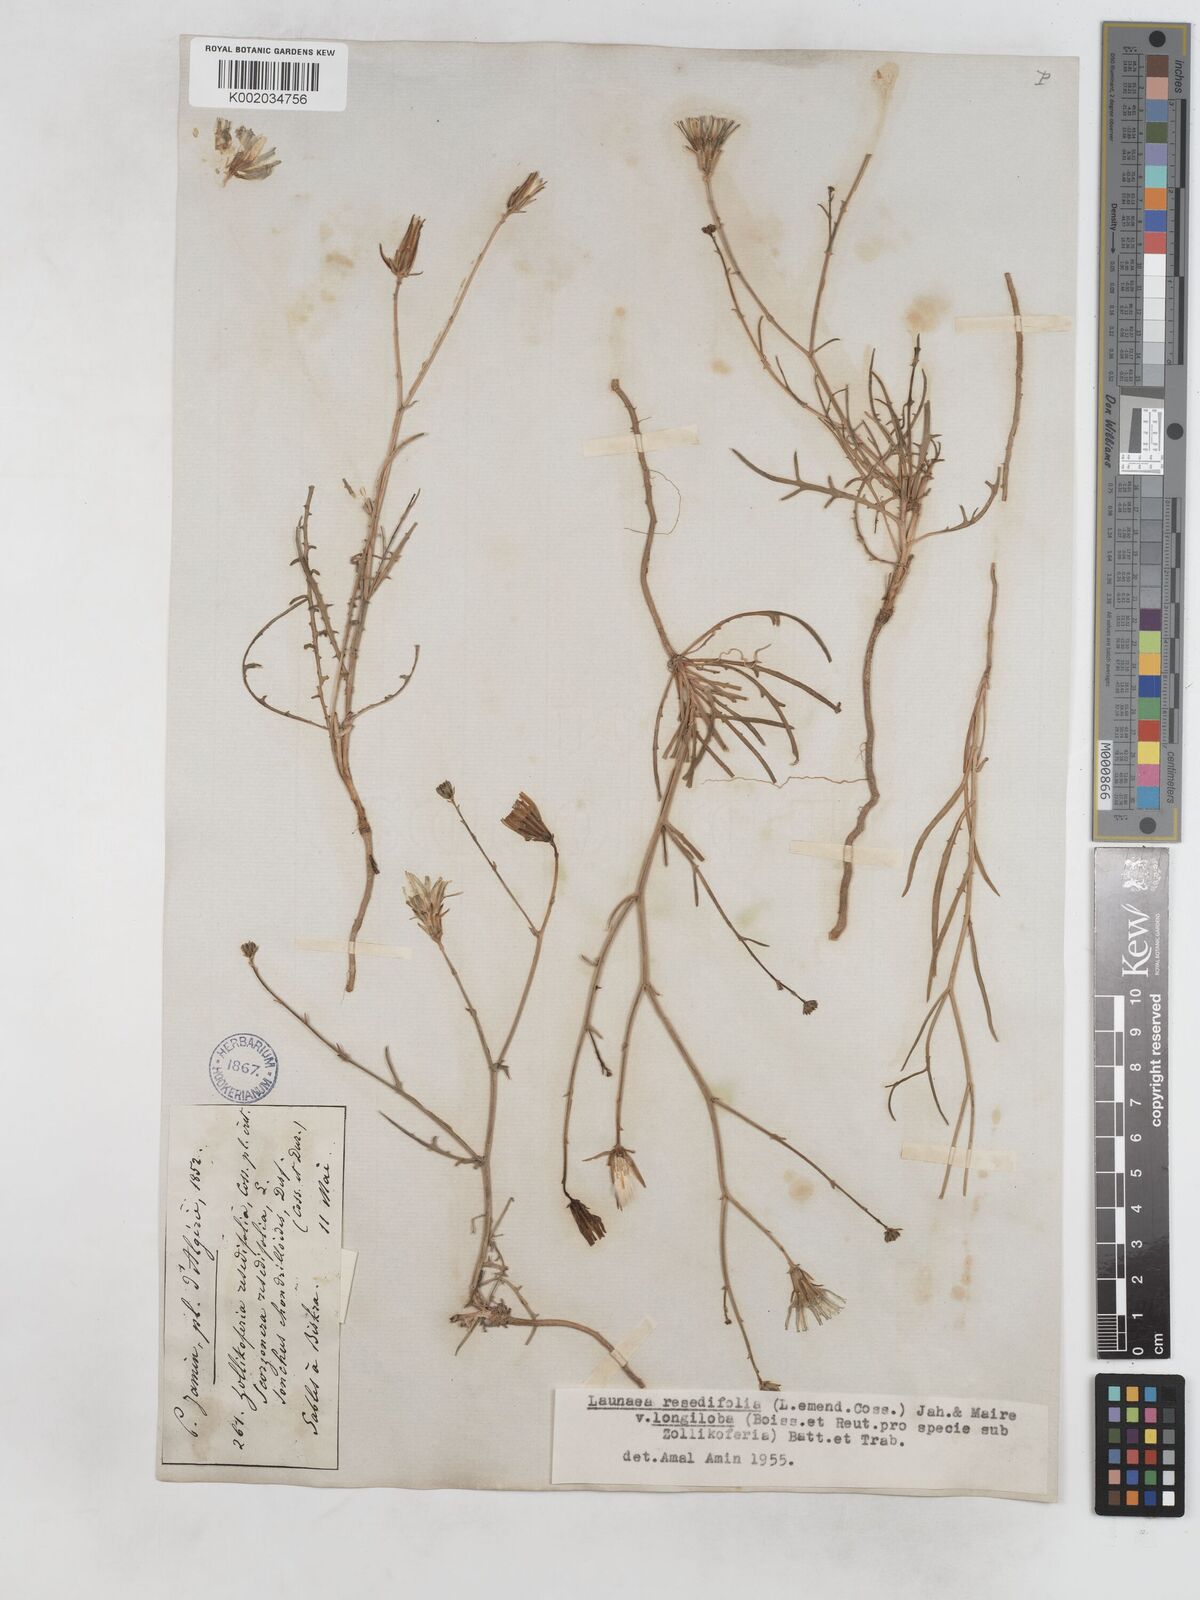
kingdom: Plantae
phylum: Tracheophyta
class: Magnoliopsida
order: Asterales
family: Asteraceae
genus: Launaea
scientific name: Launaea
